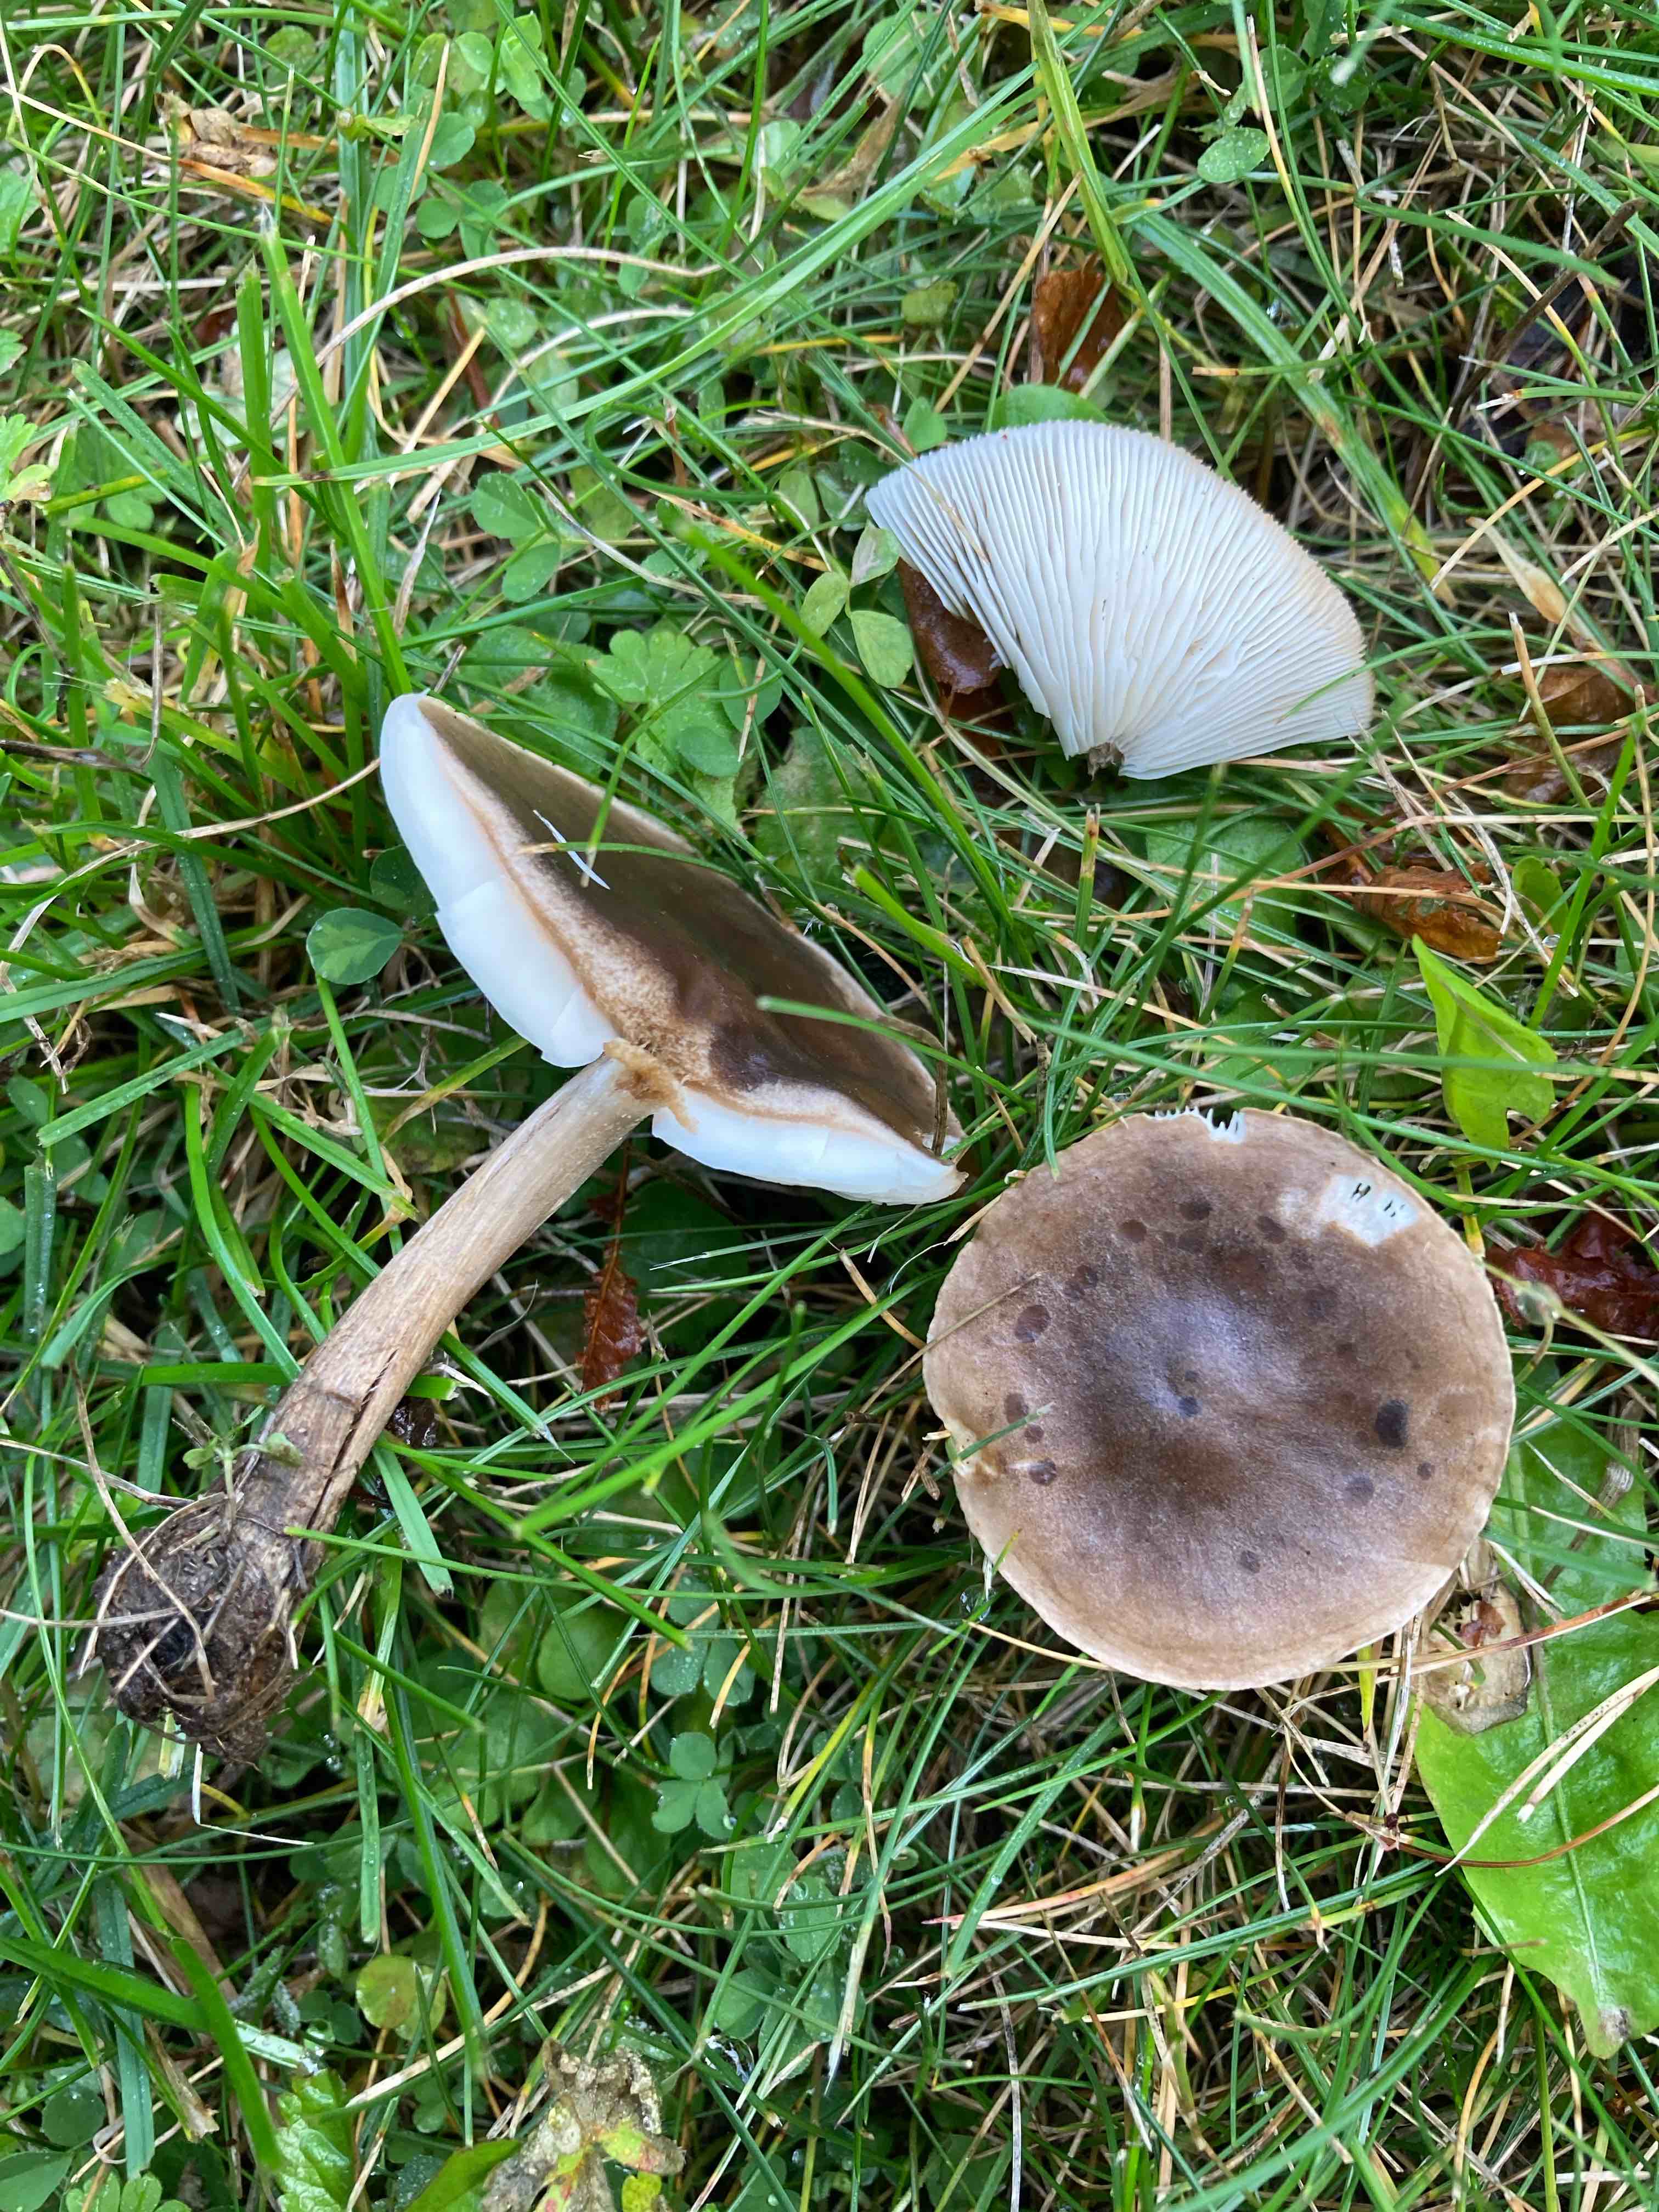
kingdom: Fungi
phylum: Basidiomycota
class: Agaricomycetes
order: Agaricales
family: Tricholomataceae
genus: Melanoleuca
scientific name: Melanoleuca
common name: munkehat
